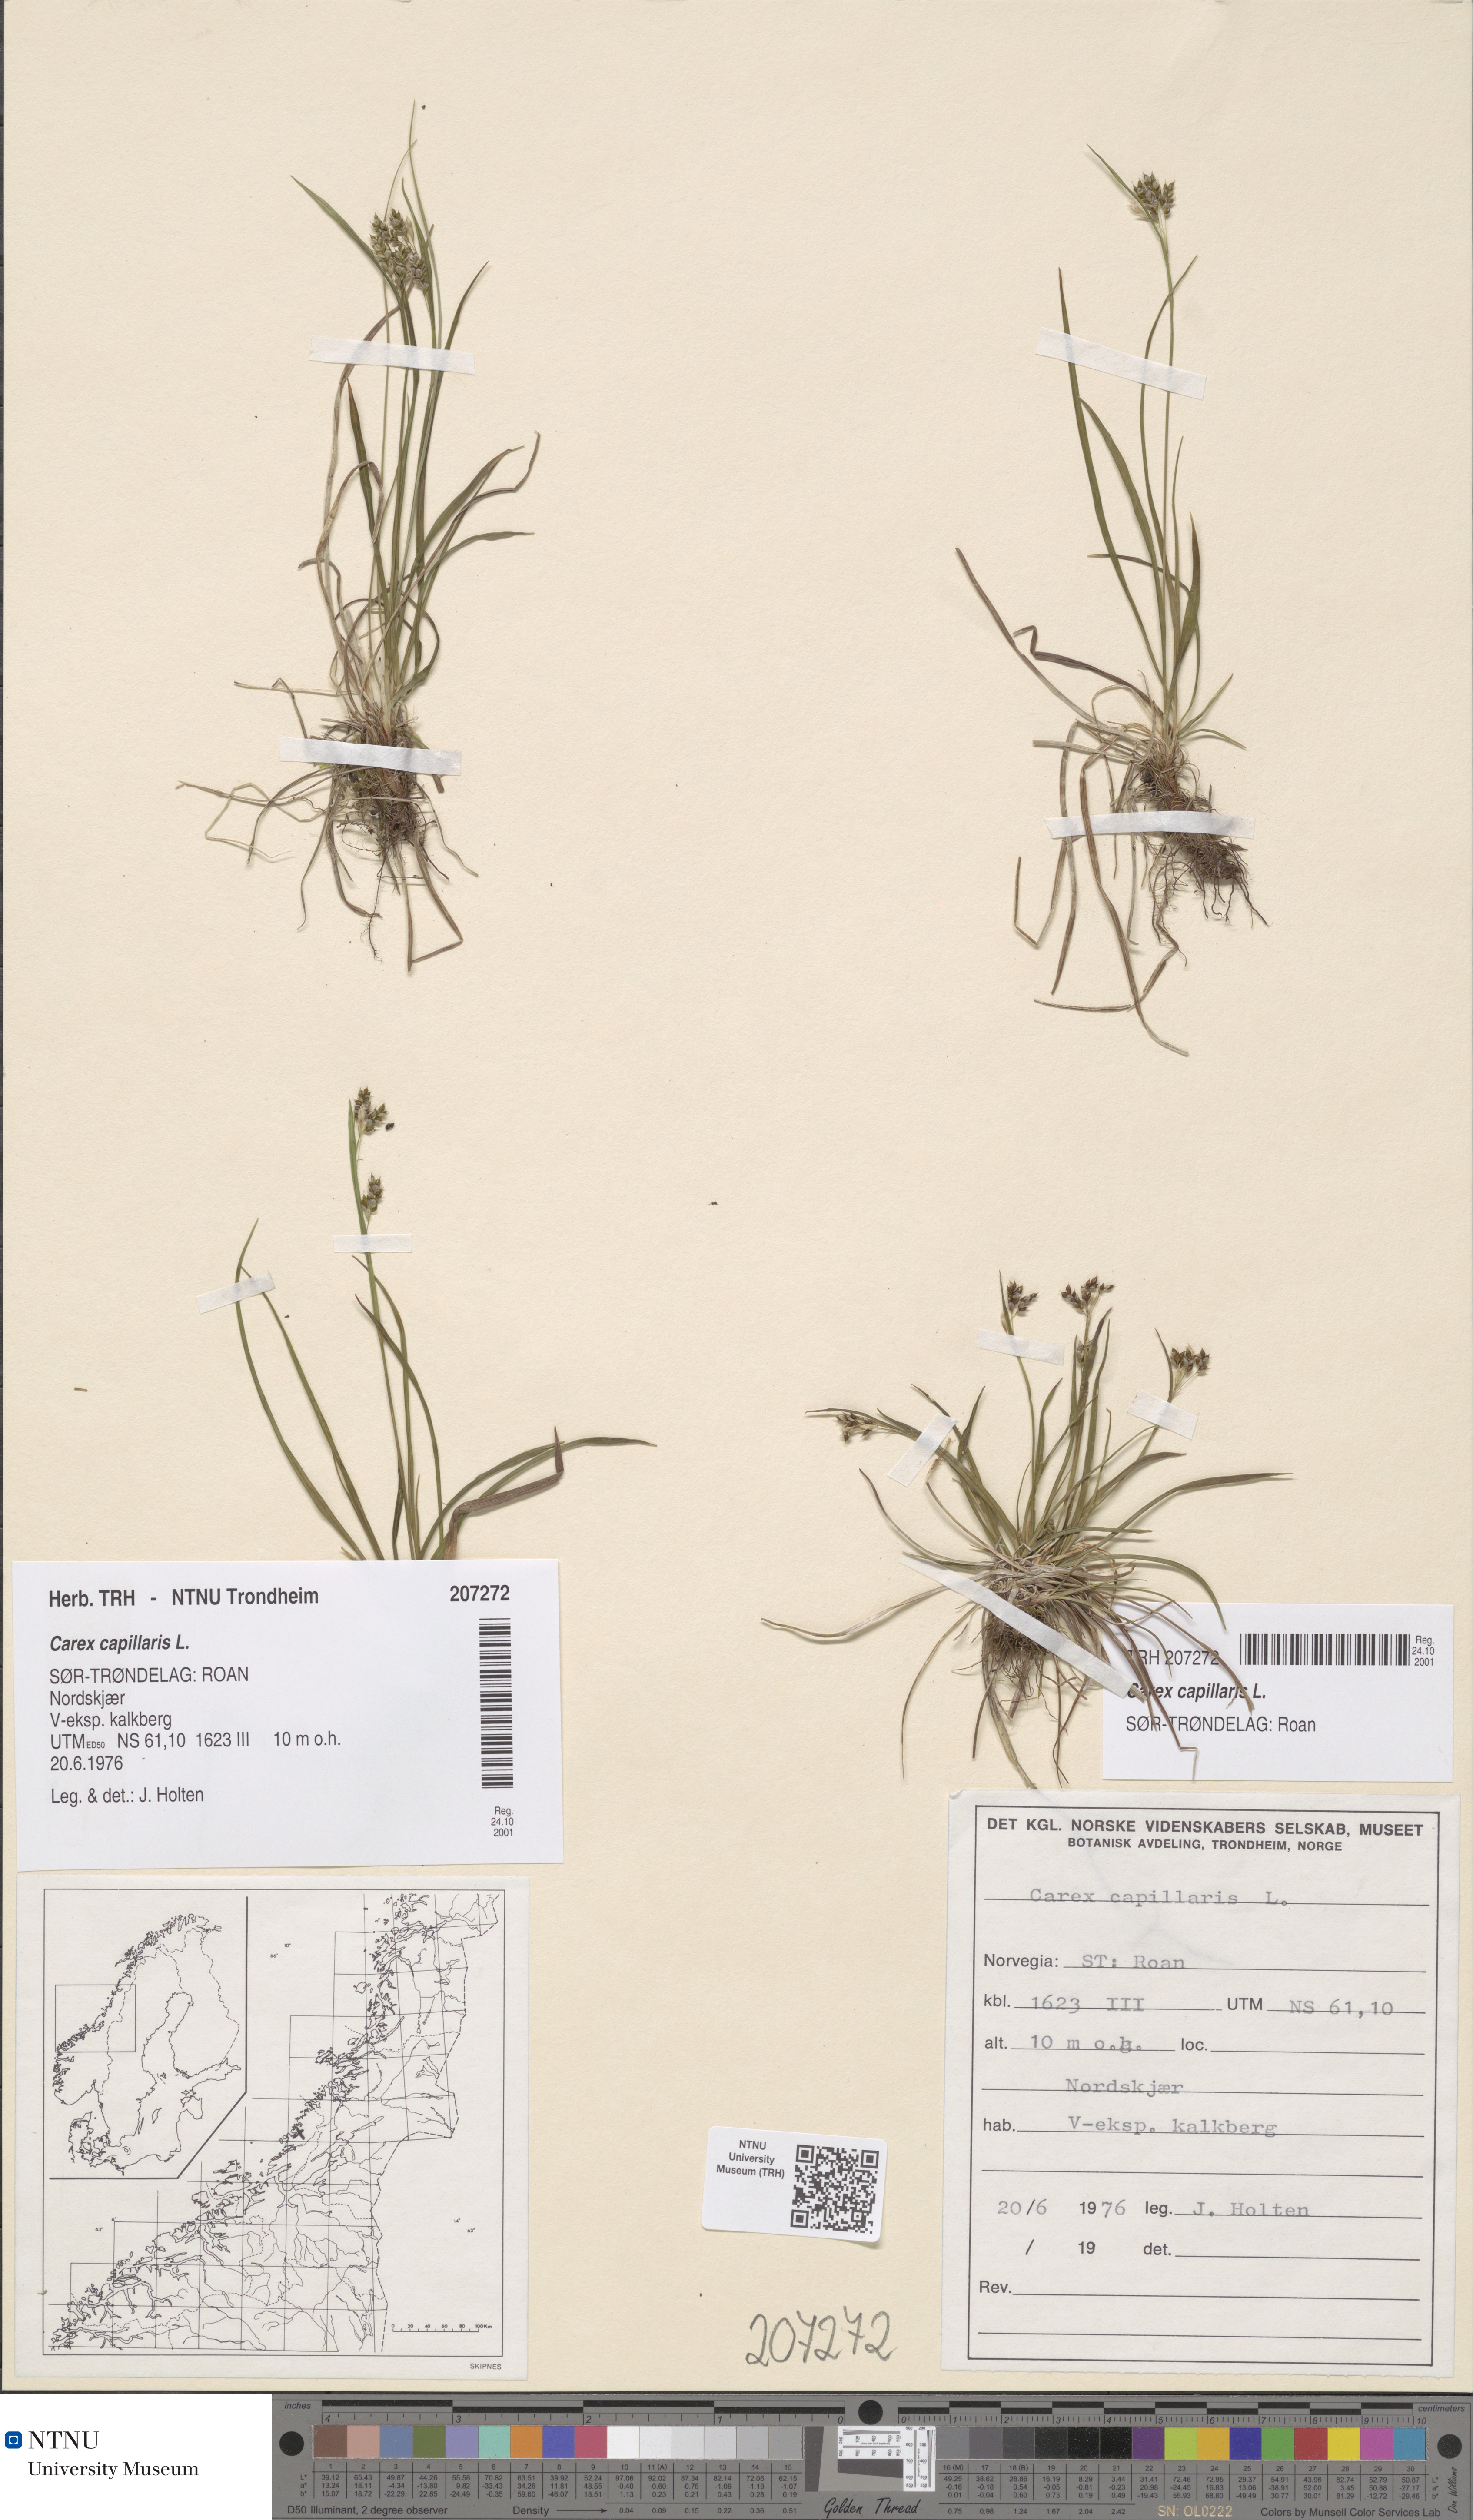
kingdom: Plantae
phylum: Tracheophyta
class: Liliopsida
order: Poales
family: Cyperaceae
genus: Carex
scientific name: Carex capillaris
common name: Hair sedge
